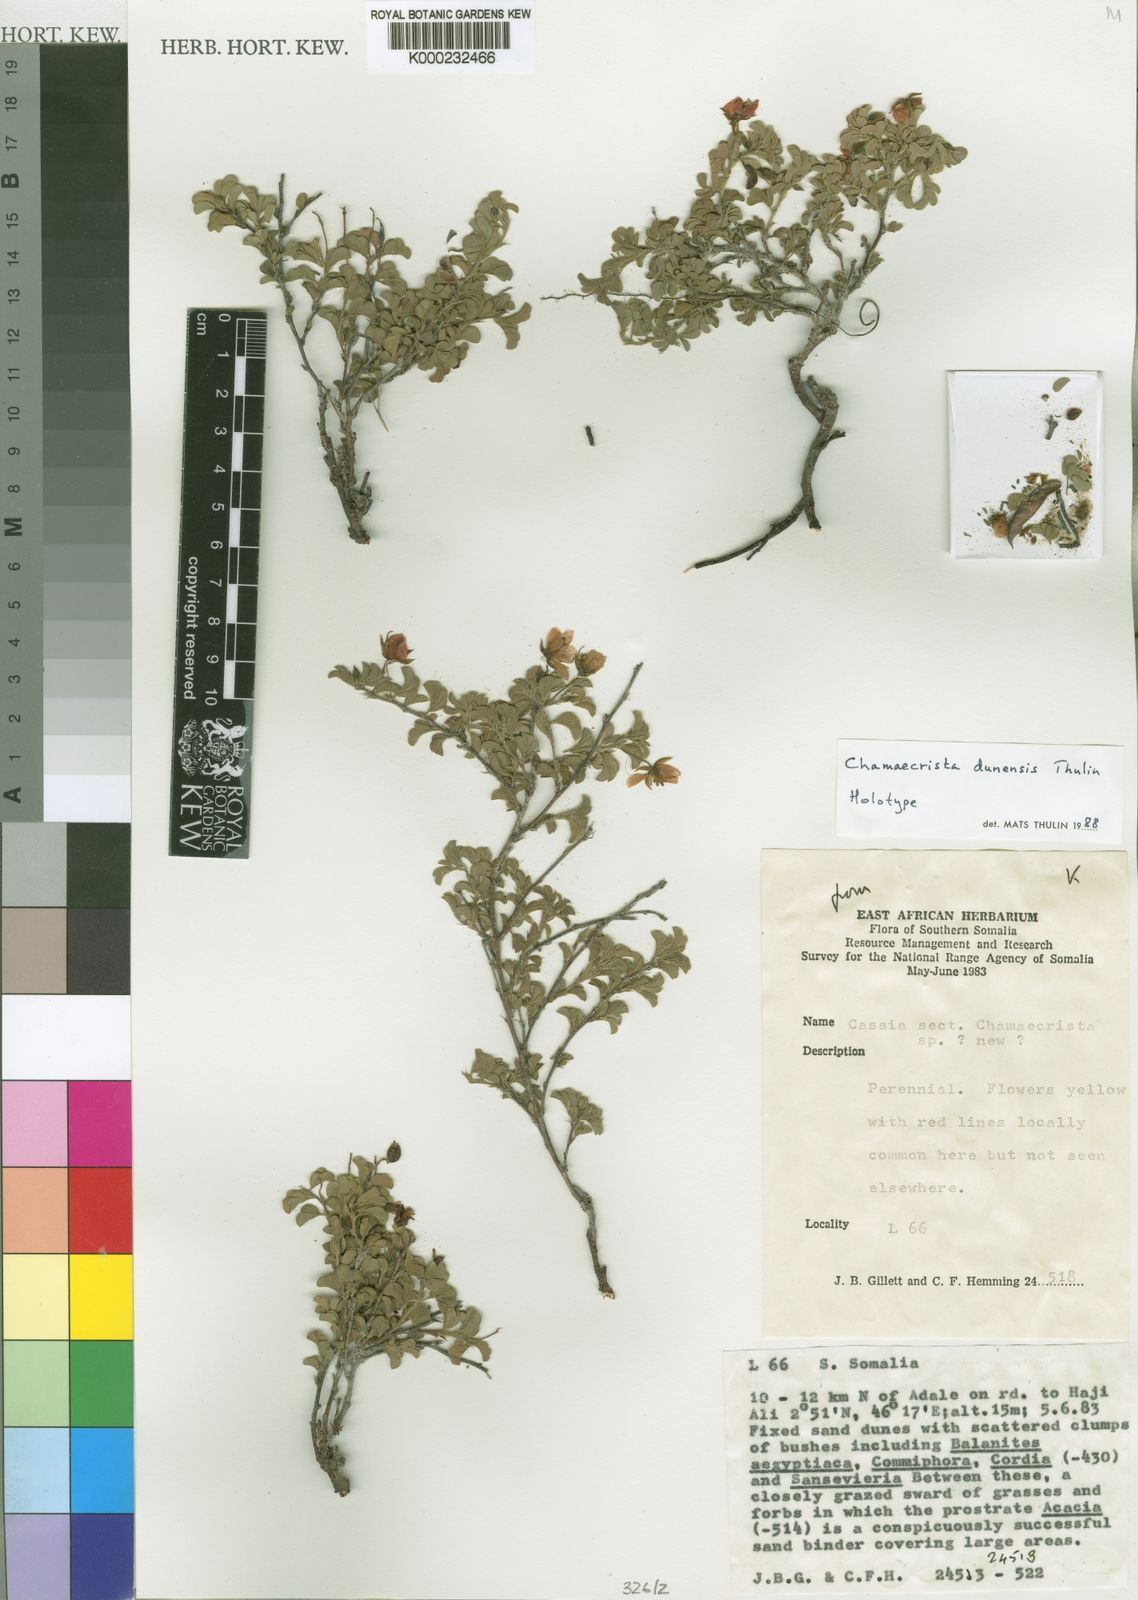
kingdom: Plantae
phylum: Tracheophyta
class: Magnoliopsida
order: Fabales
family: Fabaceae
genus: Chamaecrista
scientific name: Chamaecrista dunensis
